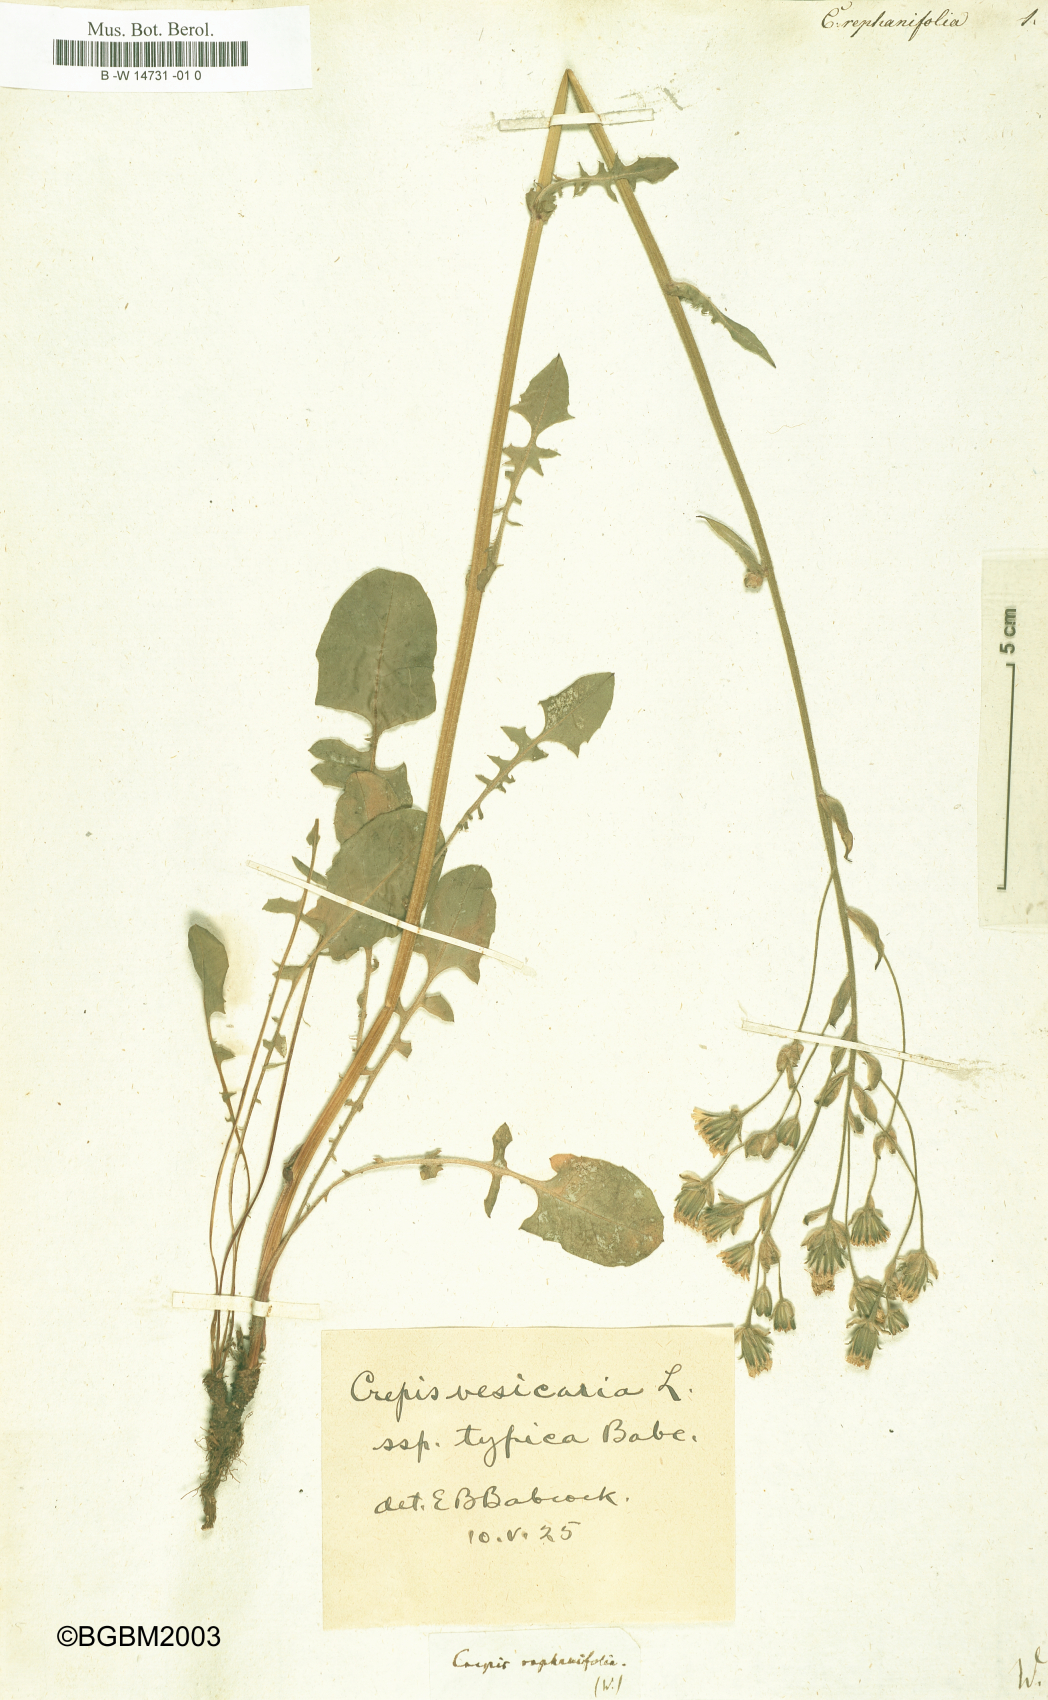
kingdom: Plantae
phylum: Tracheophyta
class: Magnoliopsida
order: Asterales
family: Asteraceae
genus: Crepis
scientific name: Crepis vesicaria
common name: Beaked hawksbeard
